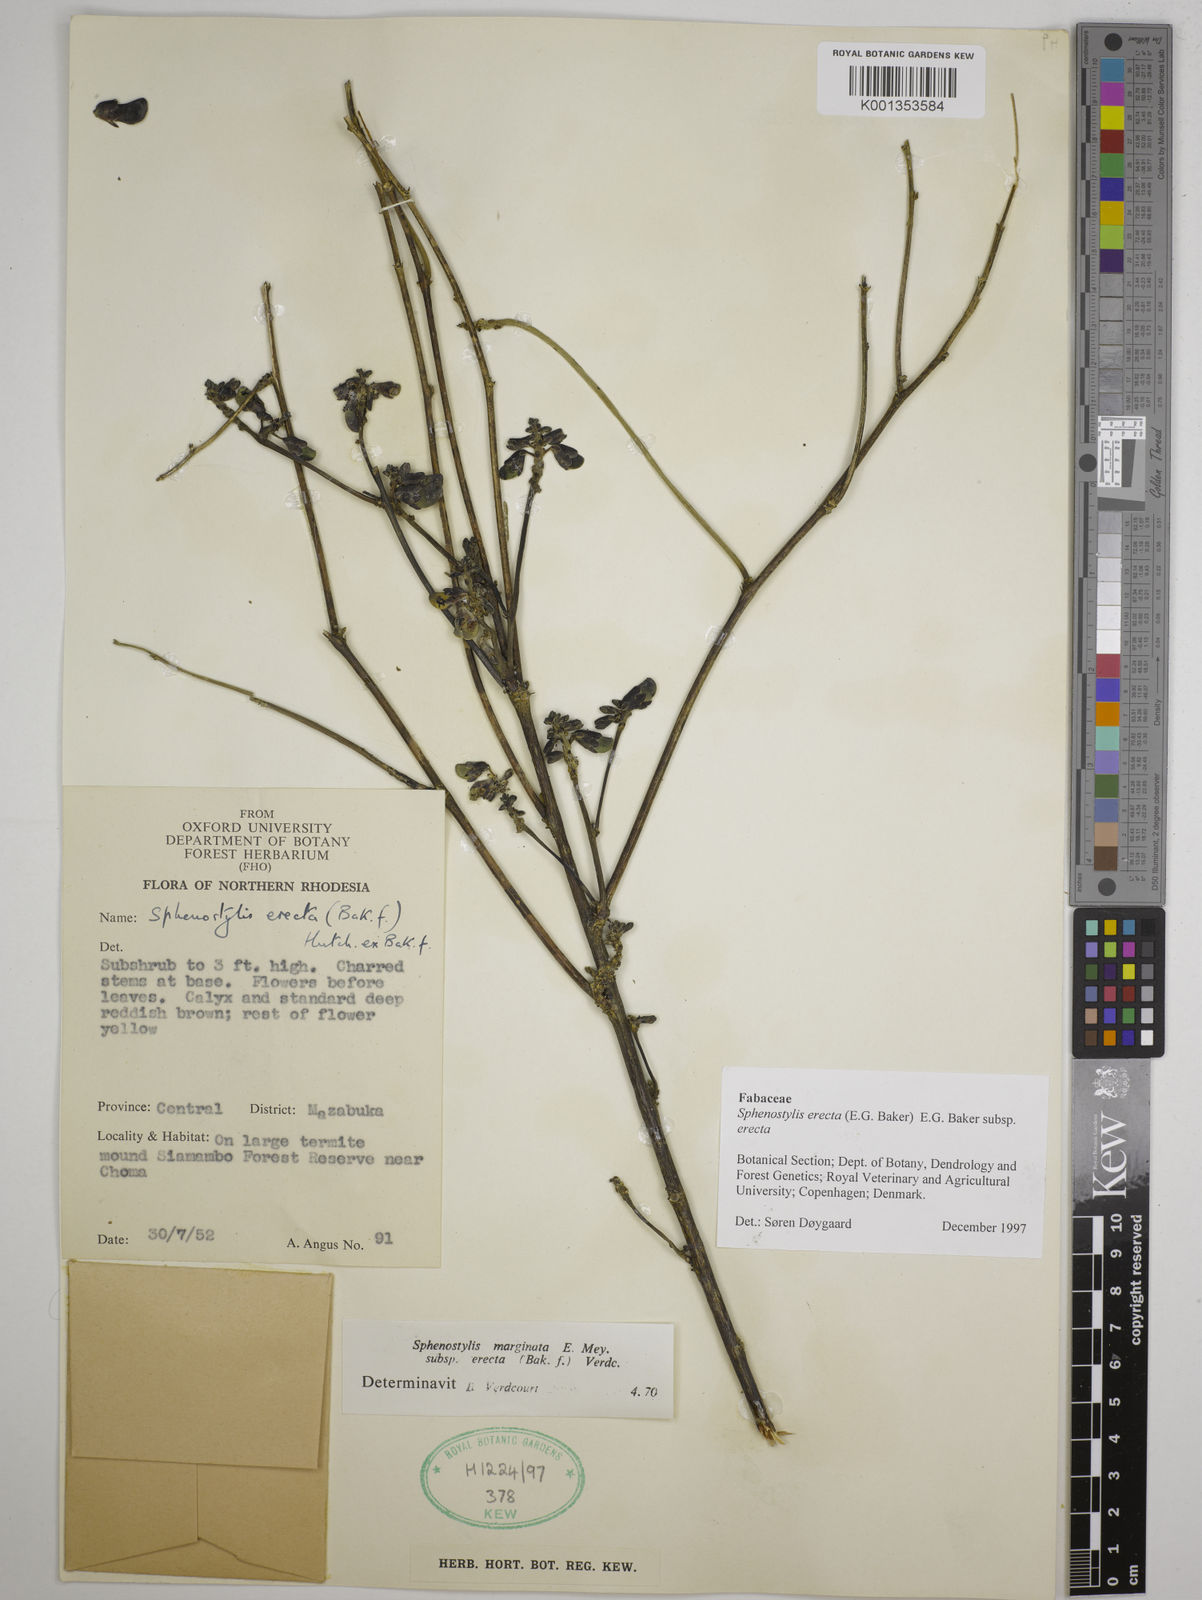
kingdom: Plantae
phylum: Tracheophyta
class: Magnoliopsida
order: Fabales
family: Fabaceae
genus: Sphenostylis
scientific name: Sphenostylis erecta
